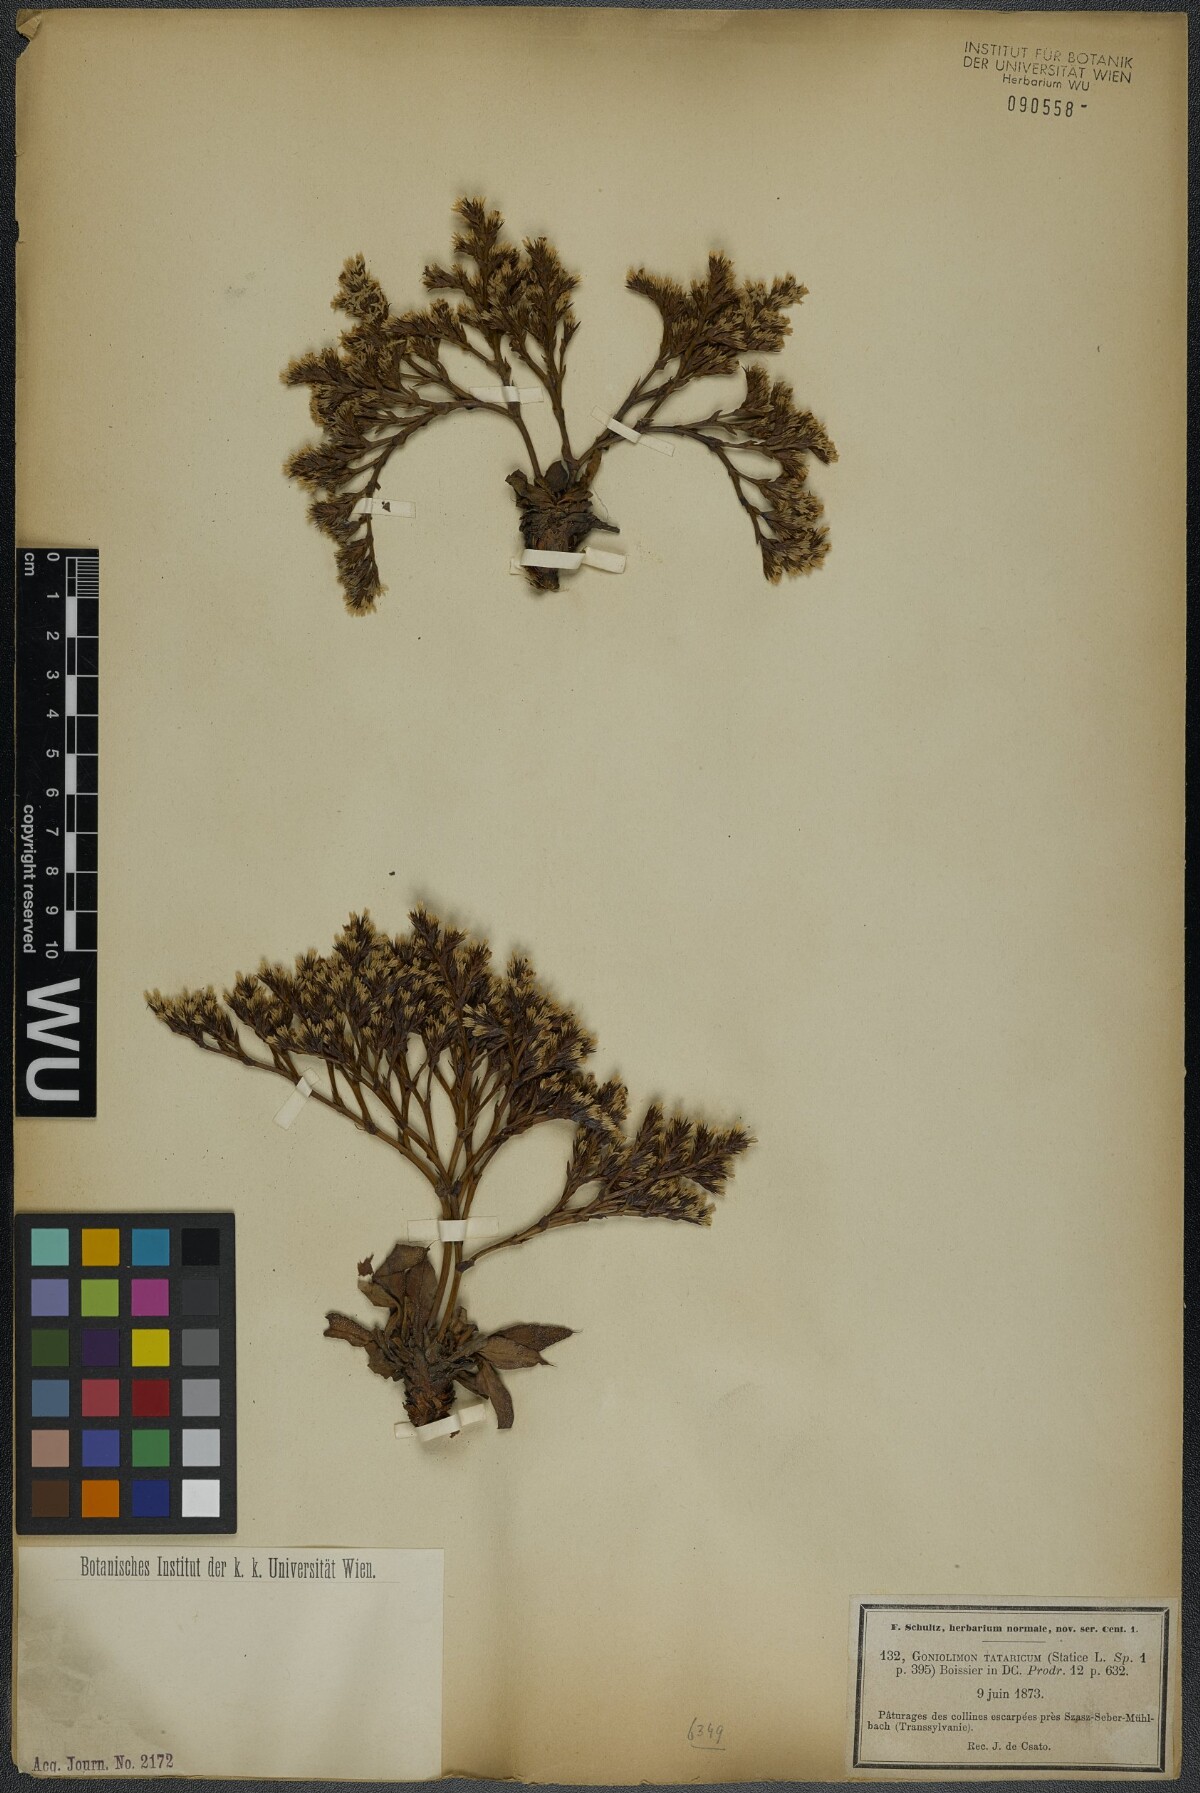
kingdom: Plantae
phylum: Tracheophyta
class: Magnoliopsida
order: Caryophyllales
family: Plumbaginaceae
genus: Goniolimon
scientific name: Goniolimon tataricum
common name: Statice
